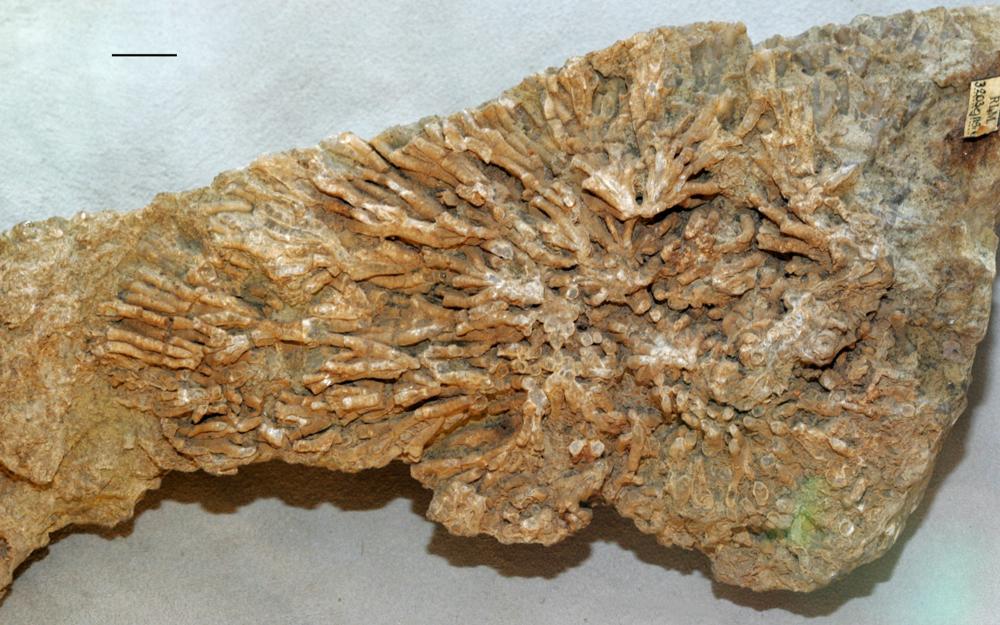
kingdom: Animalia
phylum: Cnidaria
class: Anthozoa
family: Auloporidae
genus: Eofletcheria
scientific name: Eofletcheria orvikui
